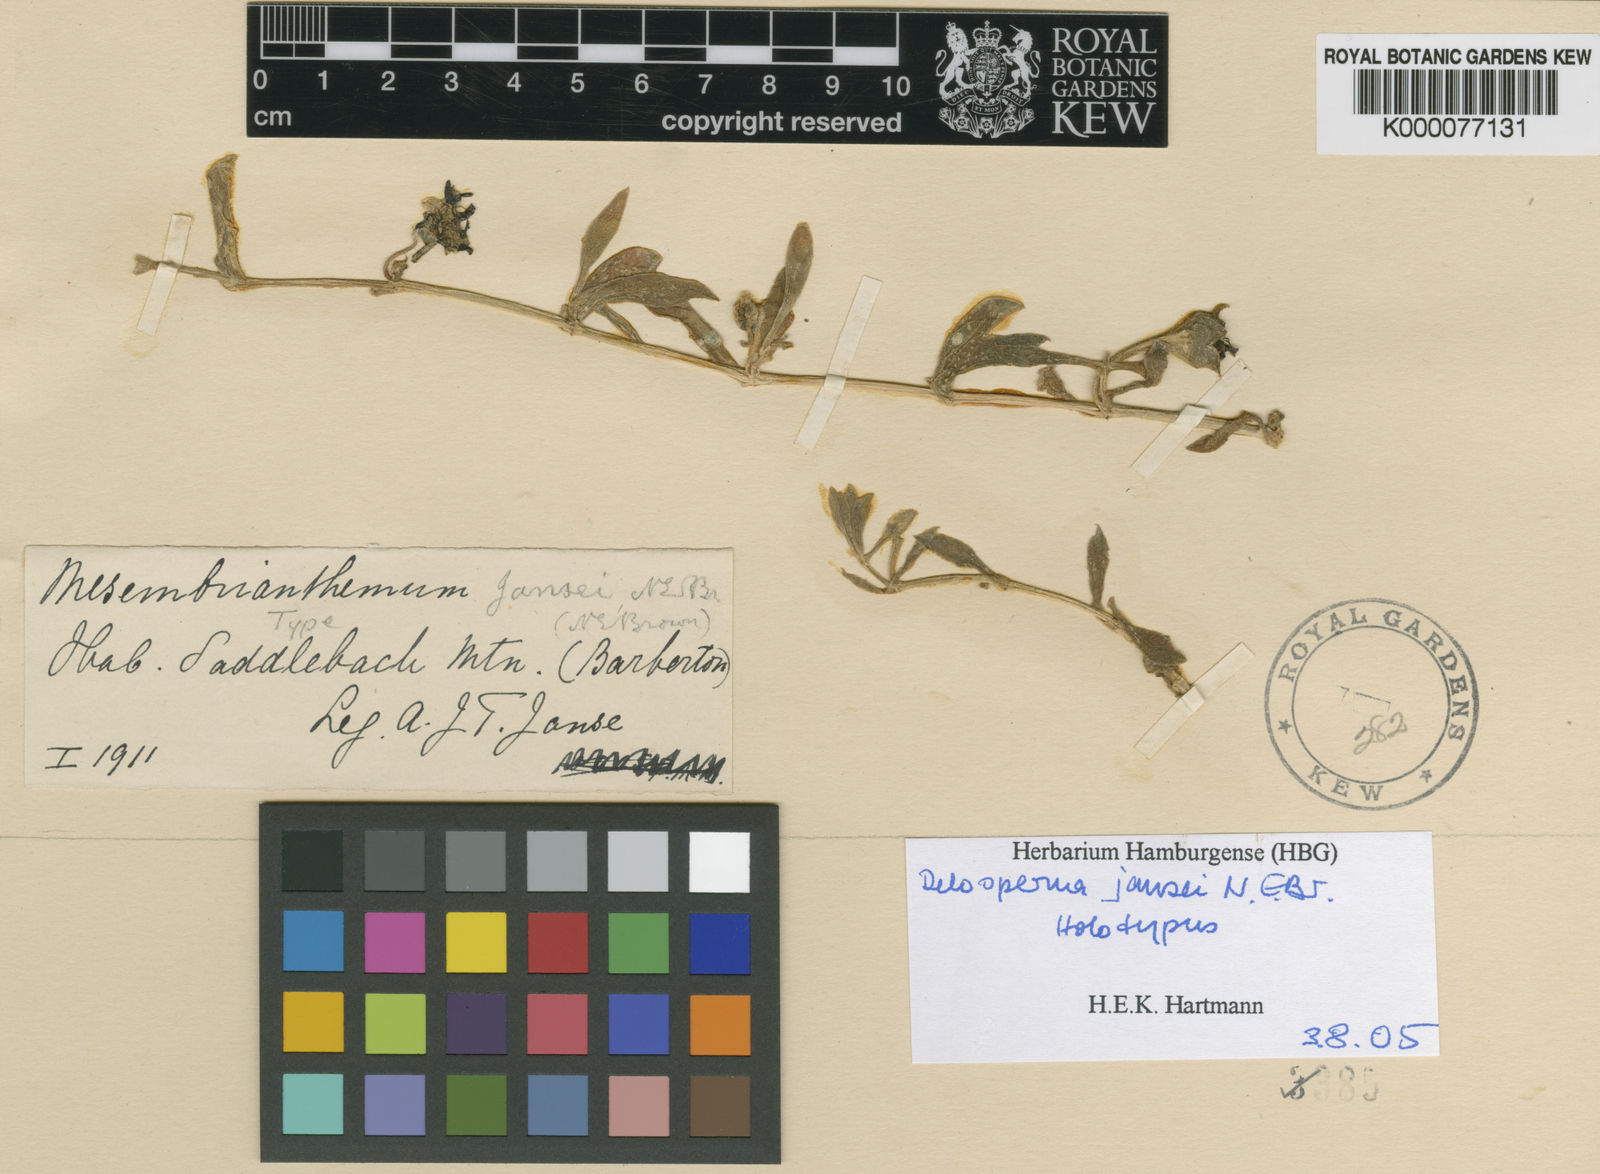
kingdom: Plantae
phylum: Tracheophyta
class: Magnoliopsida
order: Caryophyllales
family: Aizoaceae
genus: Delosperma
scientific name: Delosperma jansei
